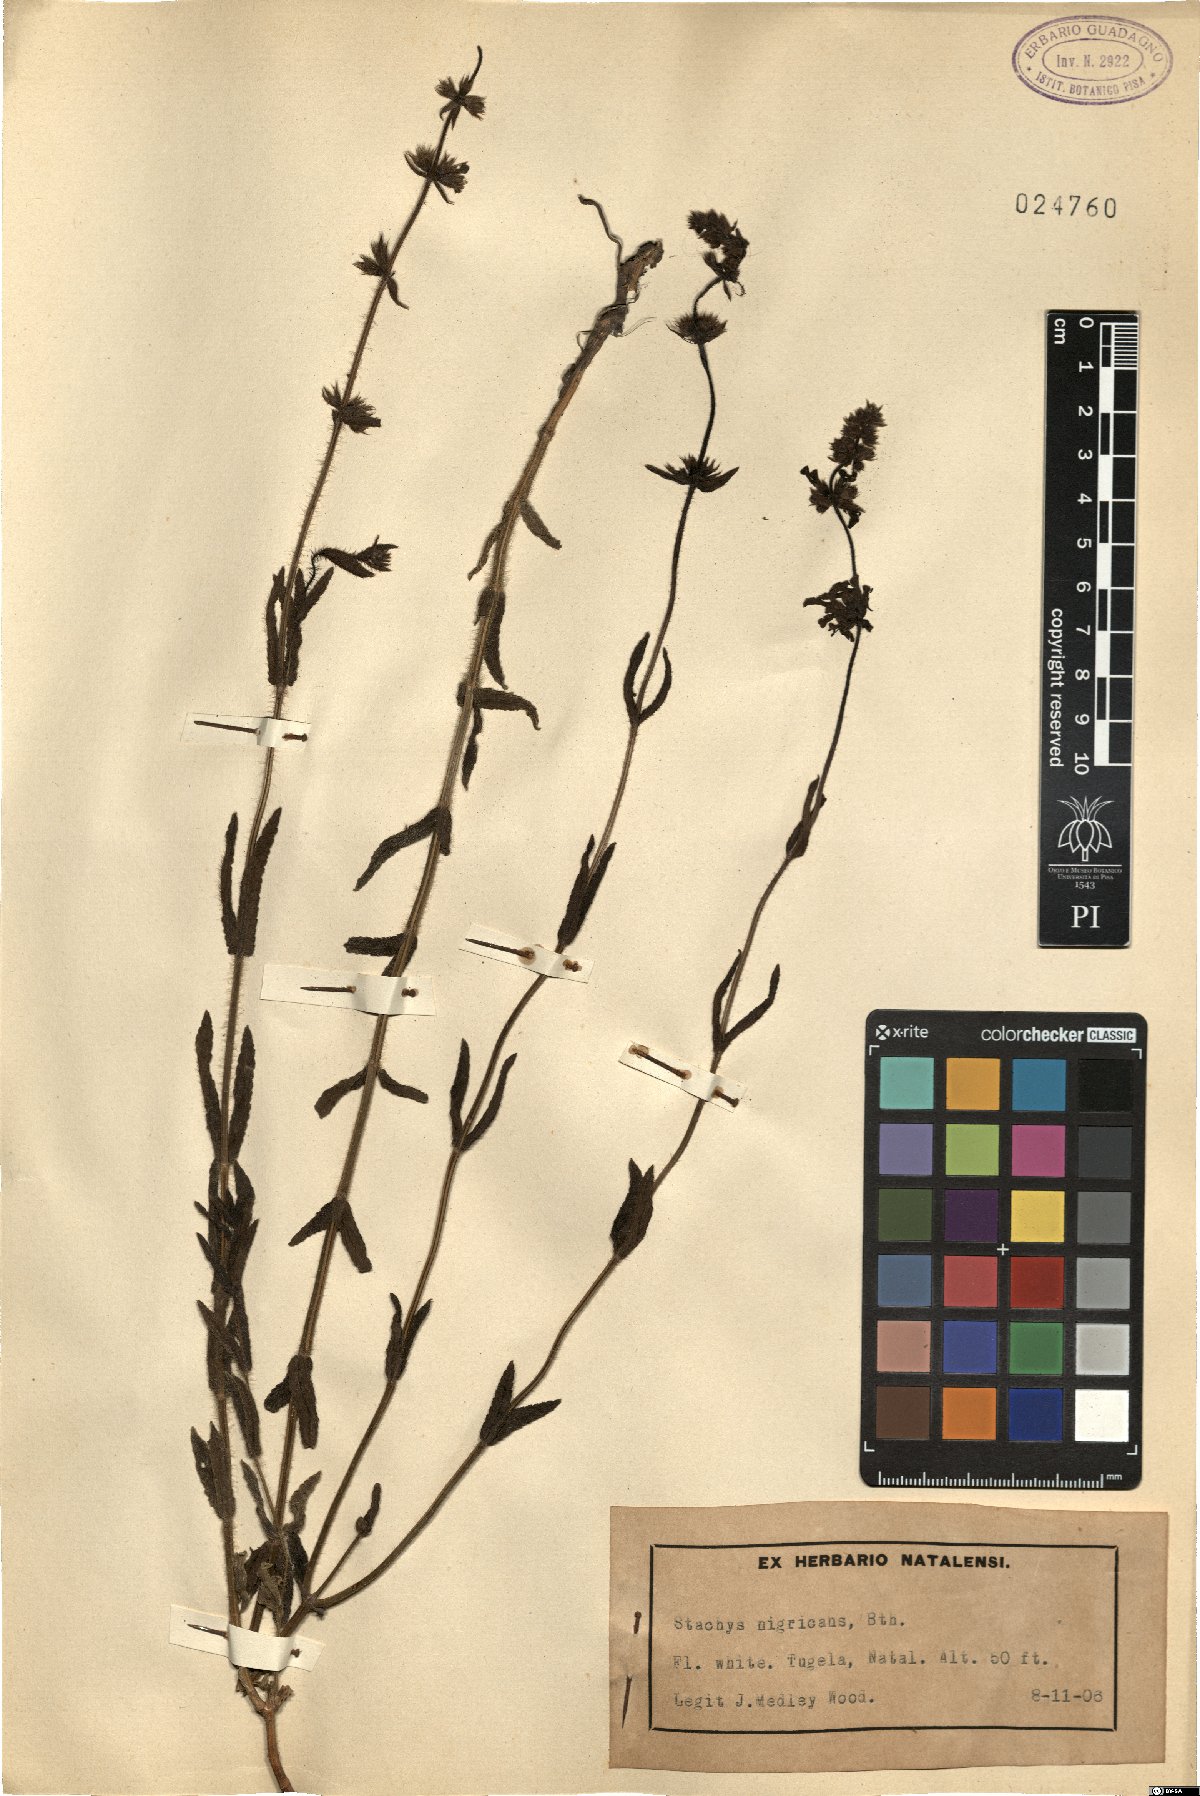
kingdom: Plantae
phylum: Tracheophyta
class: Magnoliopsida
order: Lamiales
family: Lamiaceae
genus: Stachys
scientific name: Stachys nigricans
